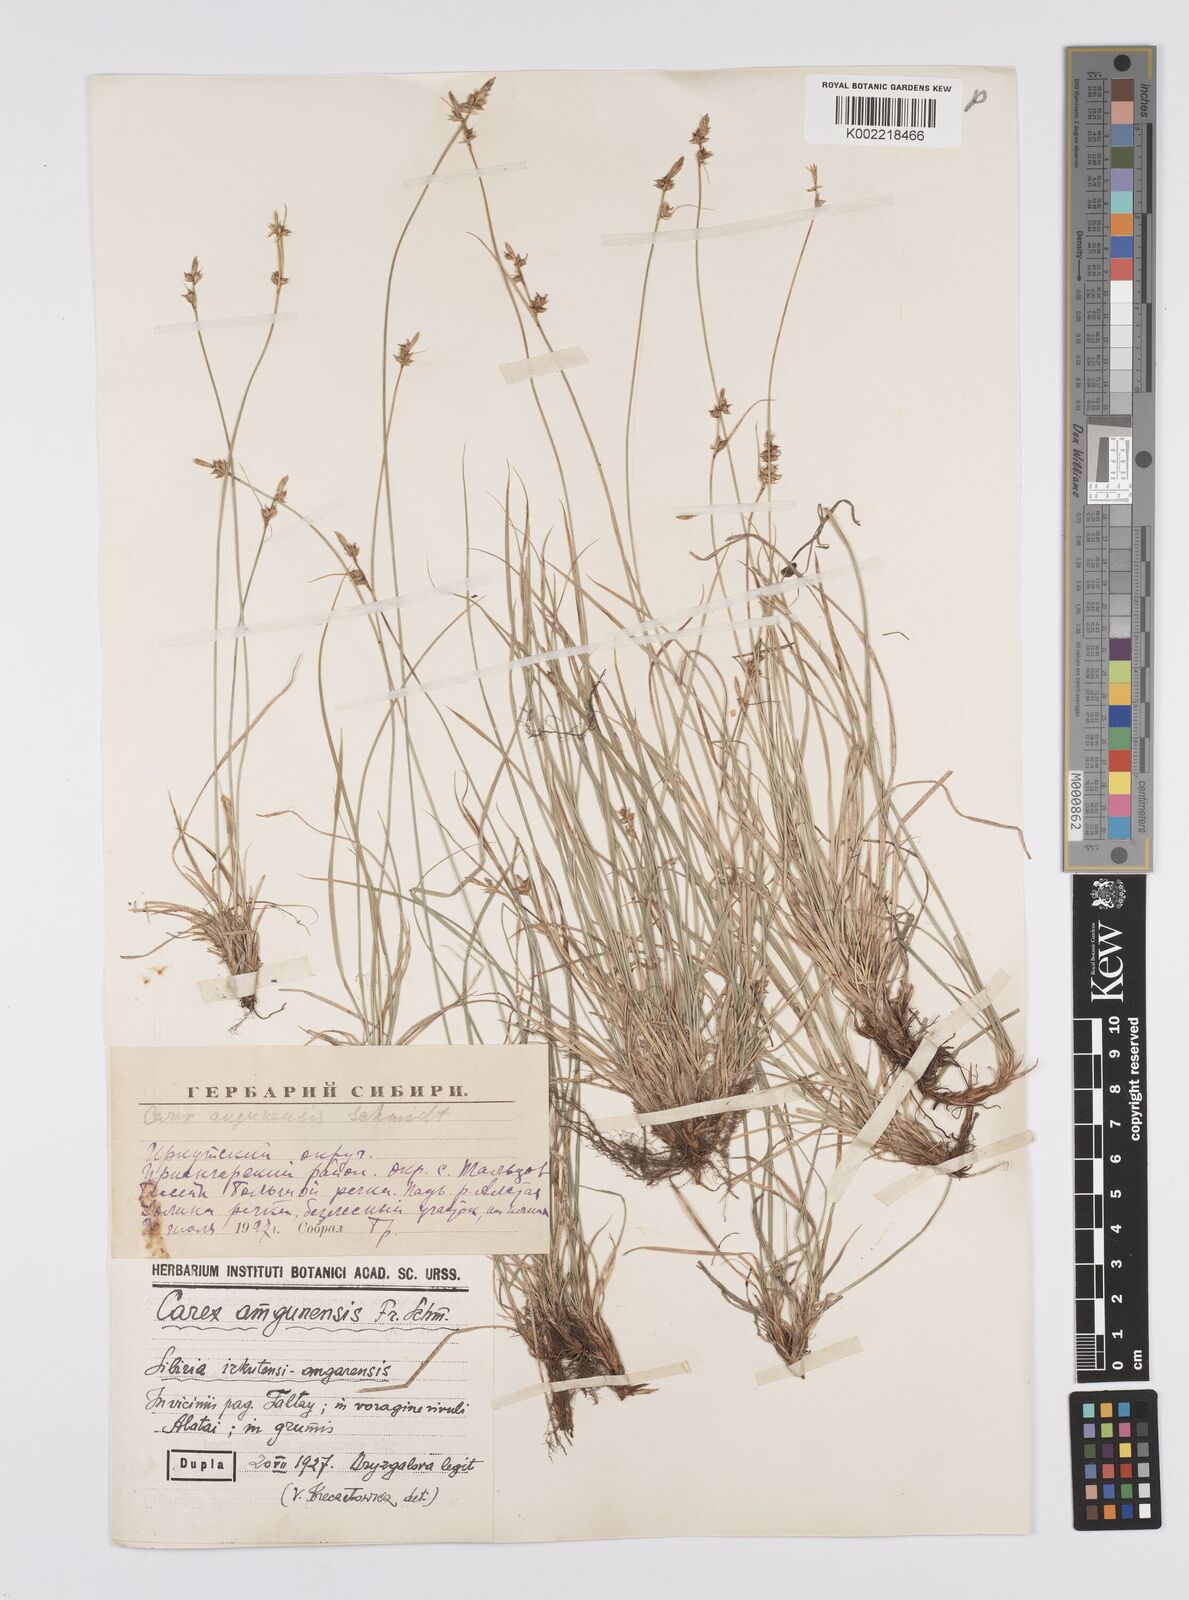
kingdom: Plantae
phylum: Tracheophyta
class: Liliopsida
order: Poales
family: Cyperaceae
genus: Carex
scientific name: Carex amgunensis
